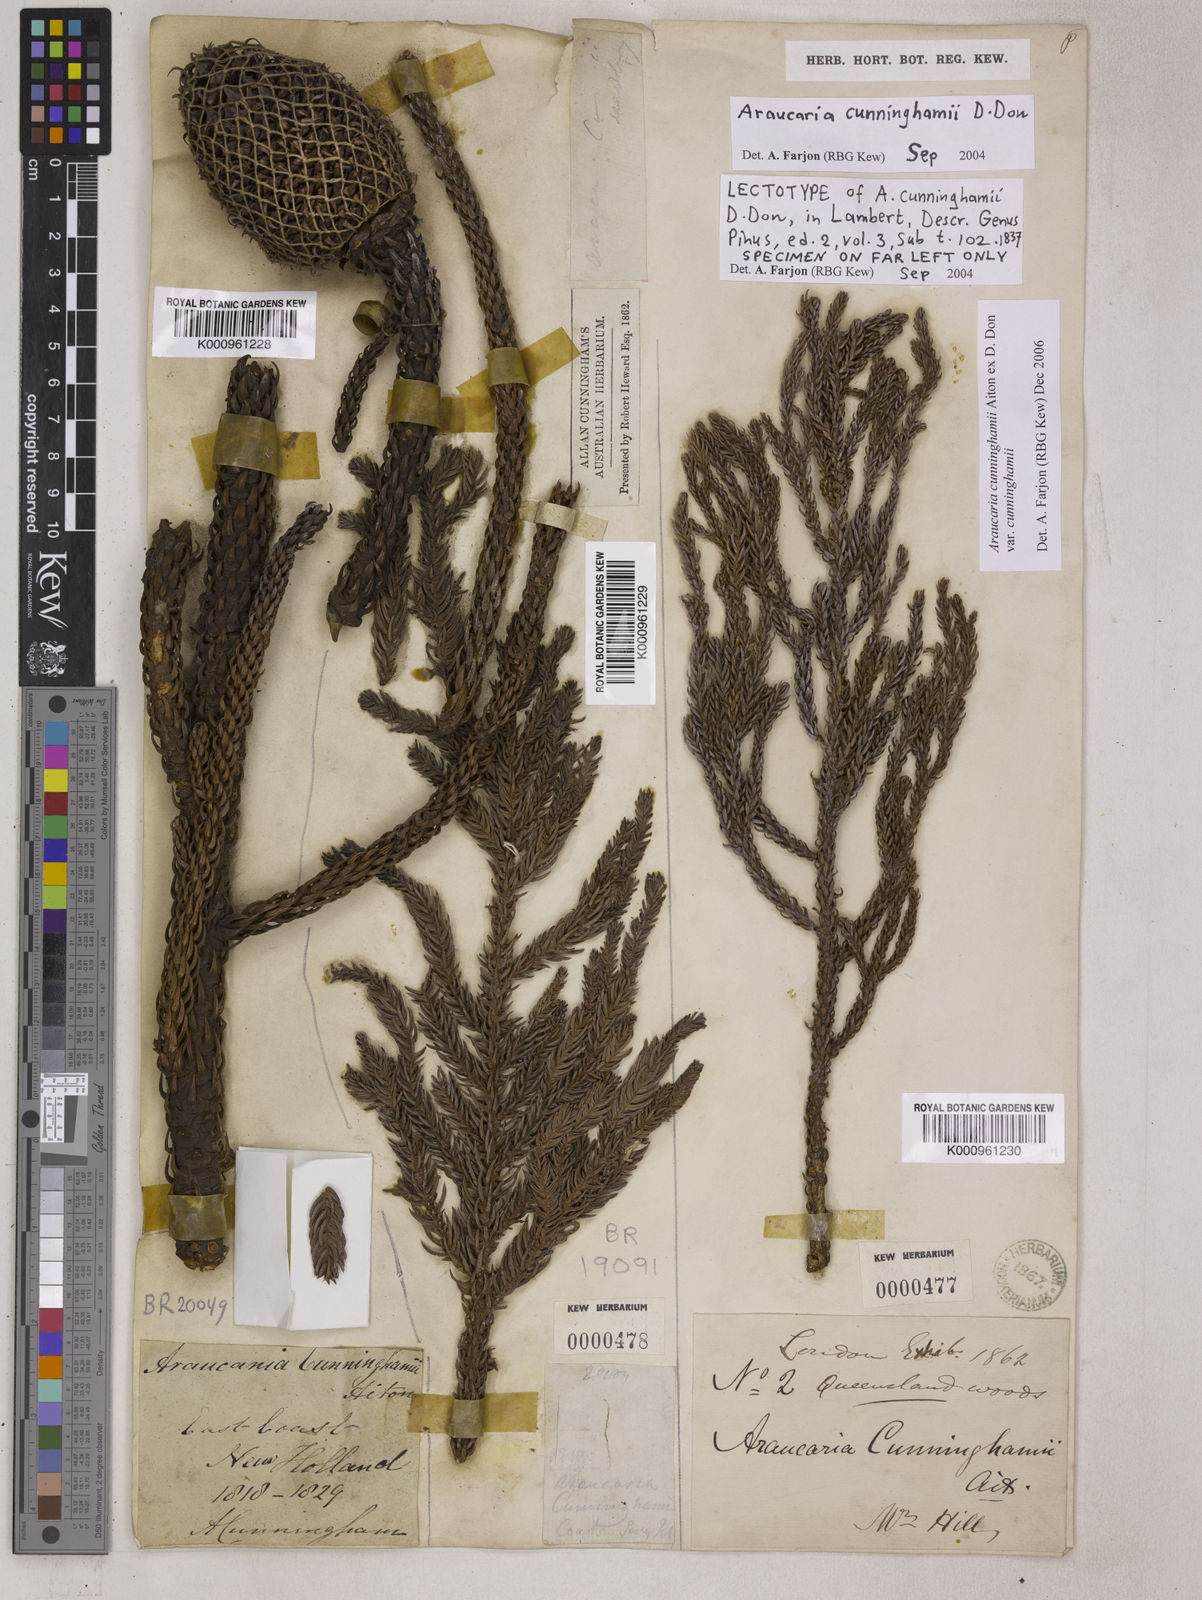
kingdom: Plantae
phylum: Tracheophyta
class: Pinopsida
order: Pinales
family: Araucariaceae
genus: Araucaria
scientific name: Araucaria cunninghamii
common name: Colonial pine
